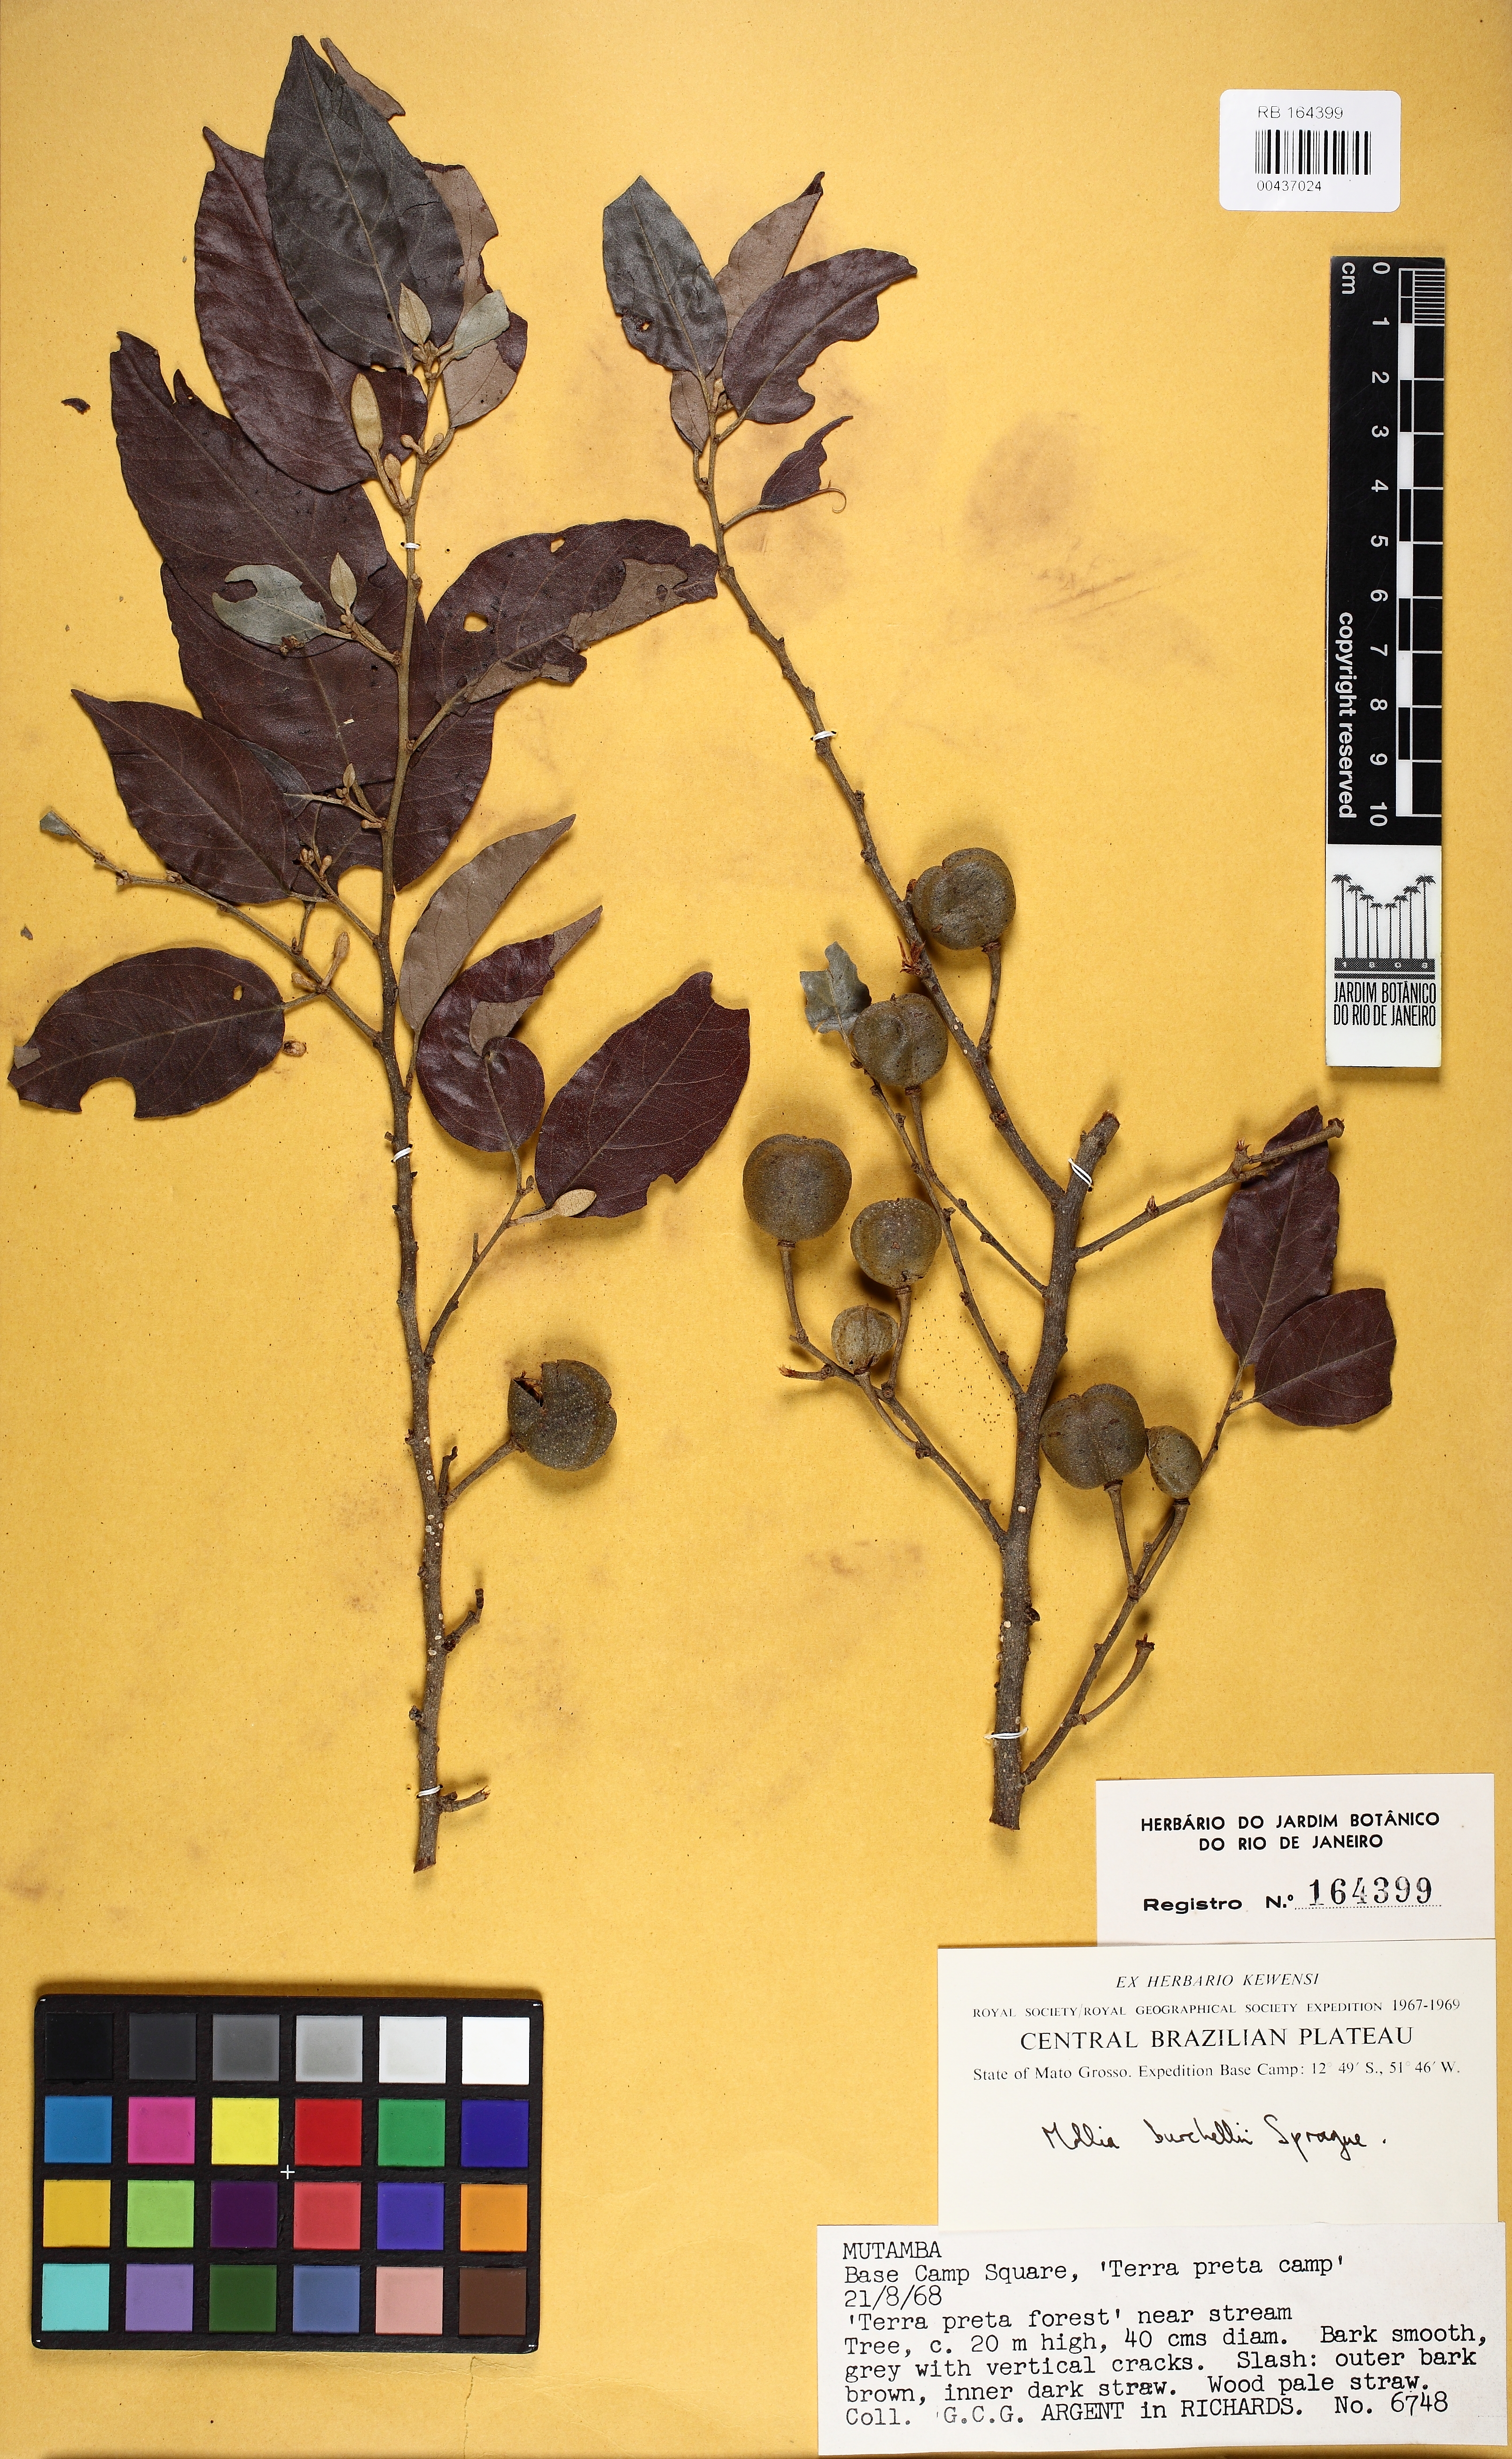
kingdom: Plantae
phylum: Tracheophyta
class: Magnoliopsida
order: Malvales
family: Malvaceae
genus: Mollia
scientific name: Mollia burchellii
